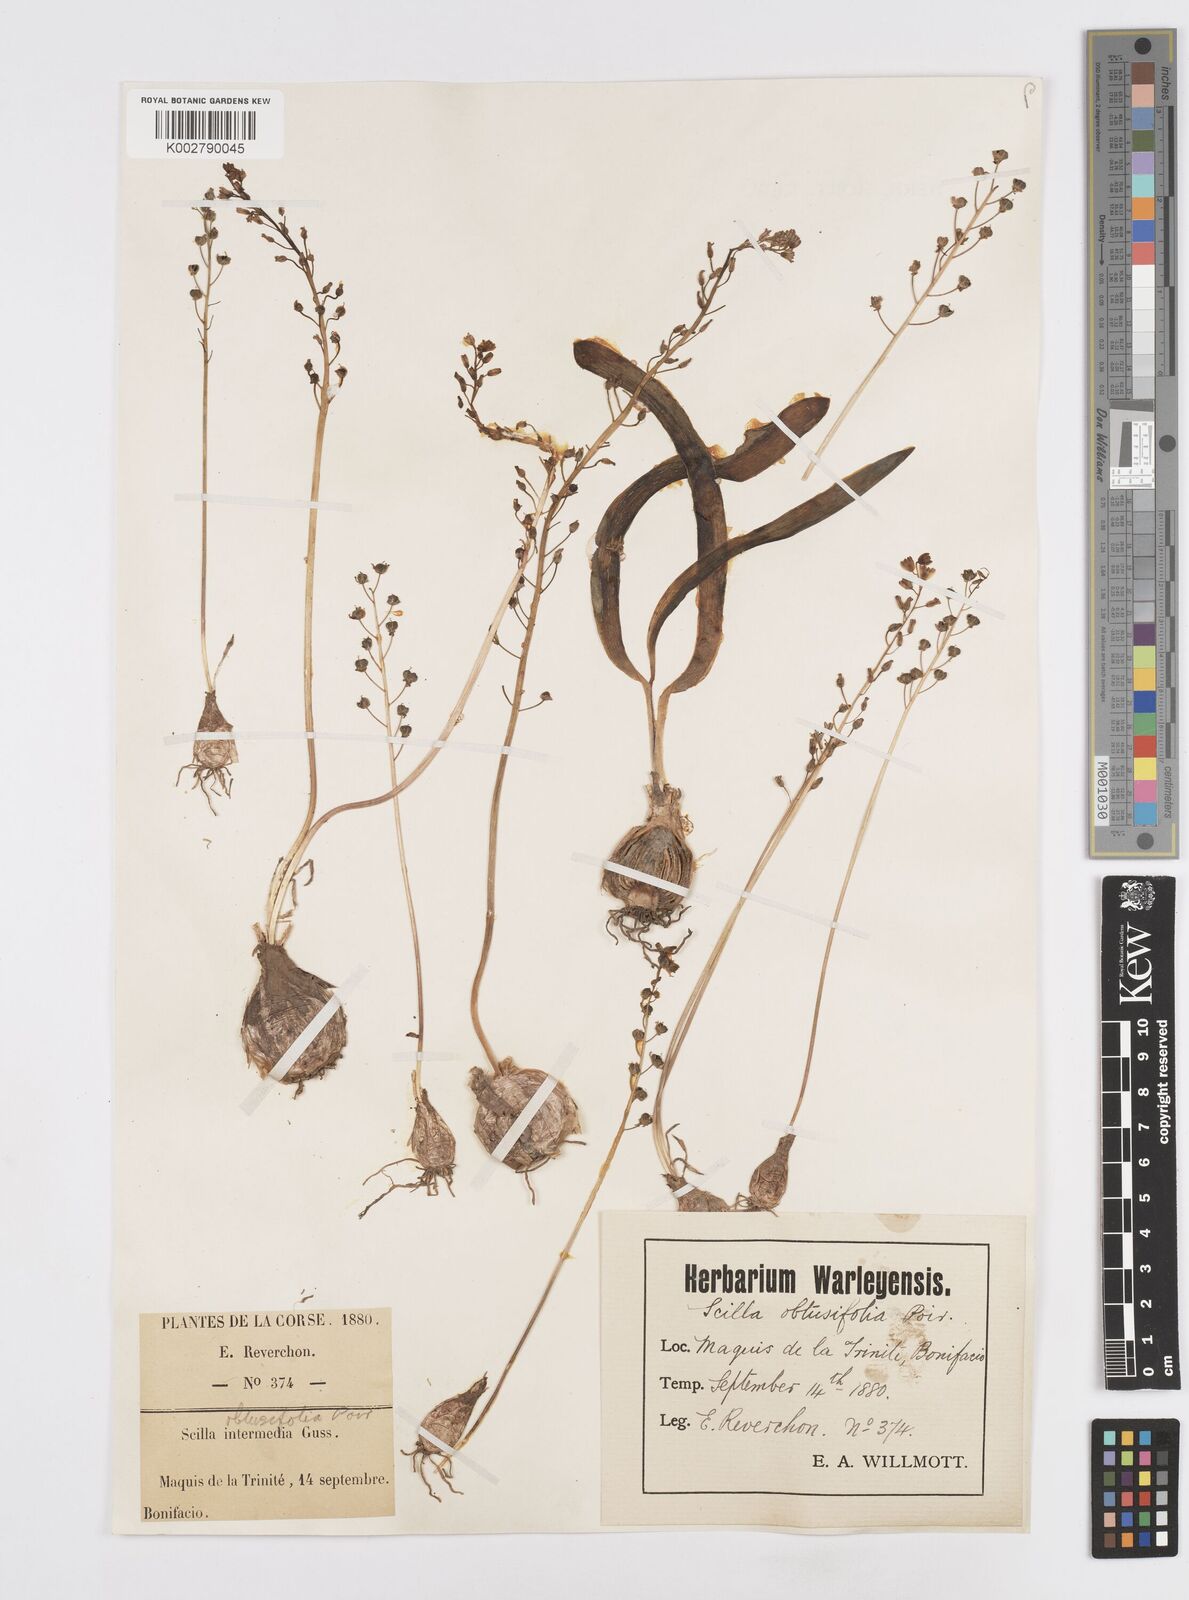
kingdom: Plantae
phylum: Tracheophyta
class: Liliopsida
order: Asparagales
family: Asparagaceae
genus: Prospero
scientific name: Prospero obtusifolium
